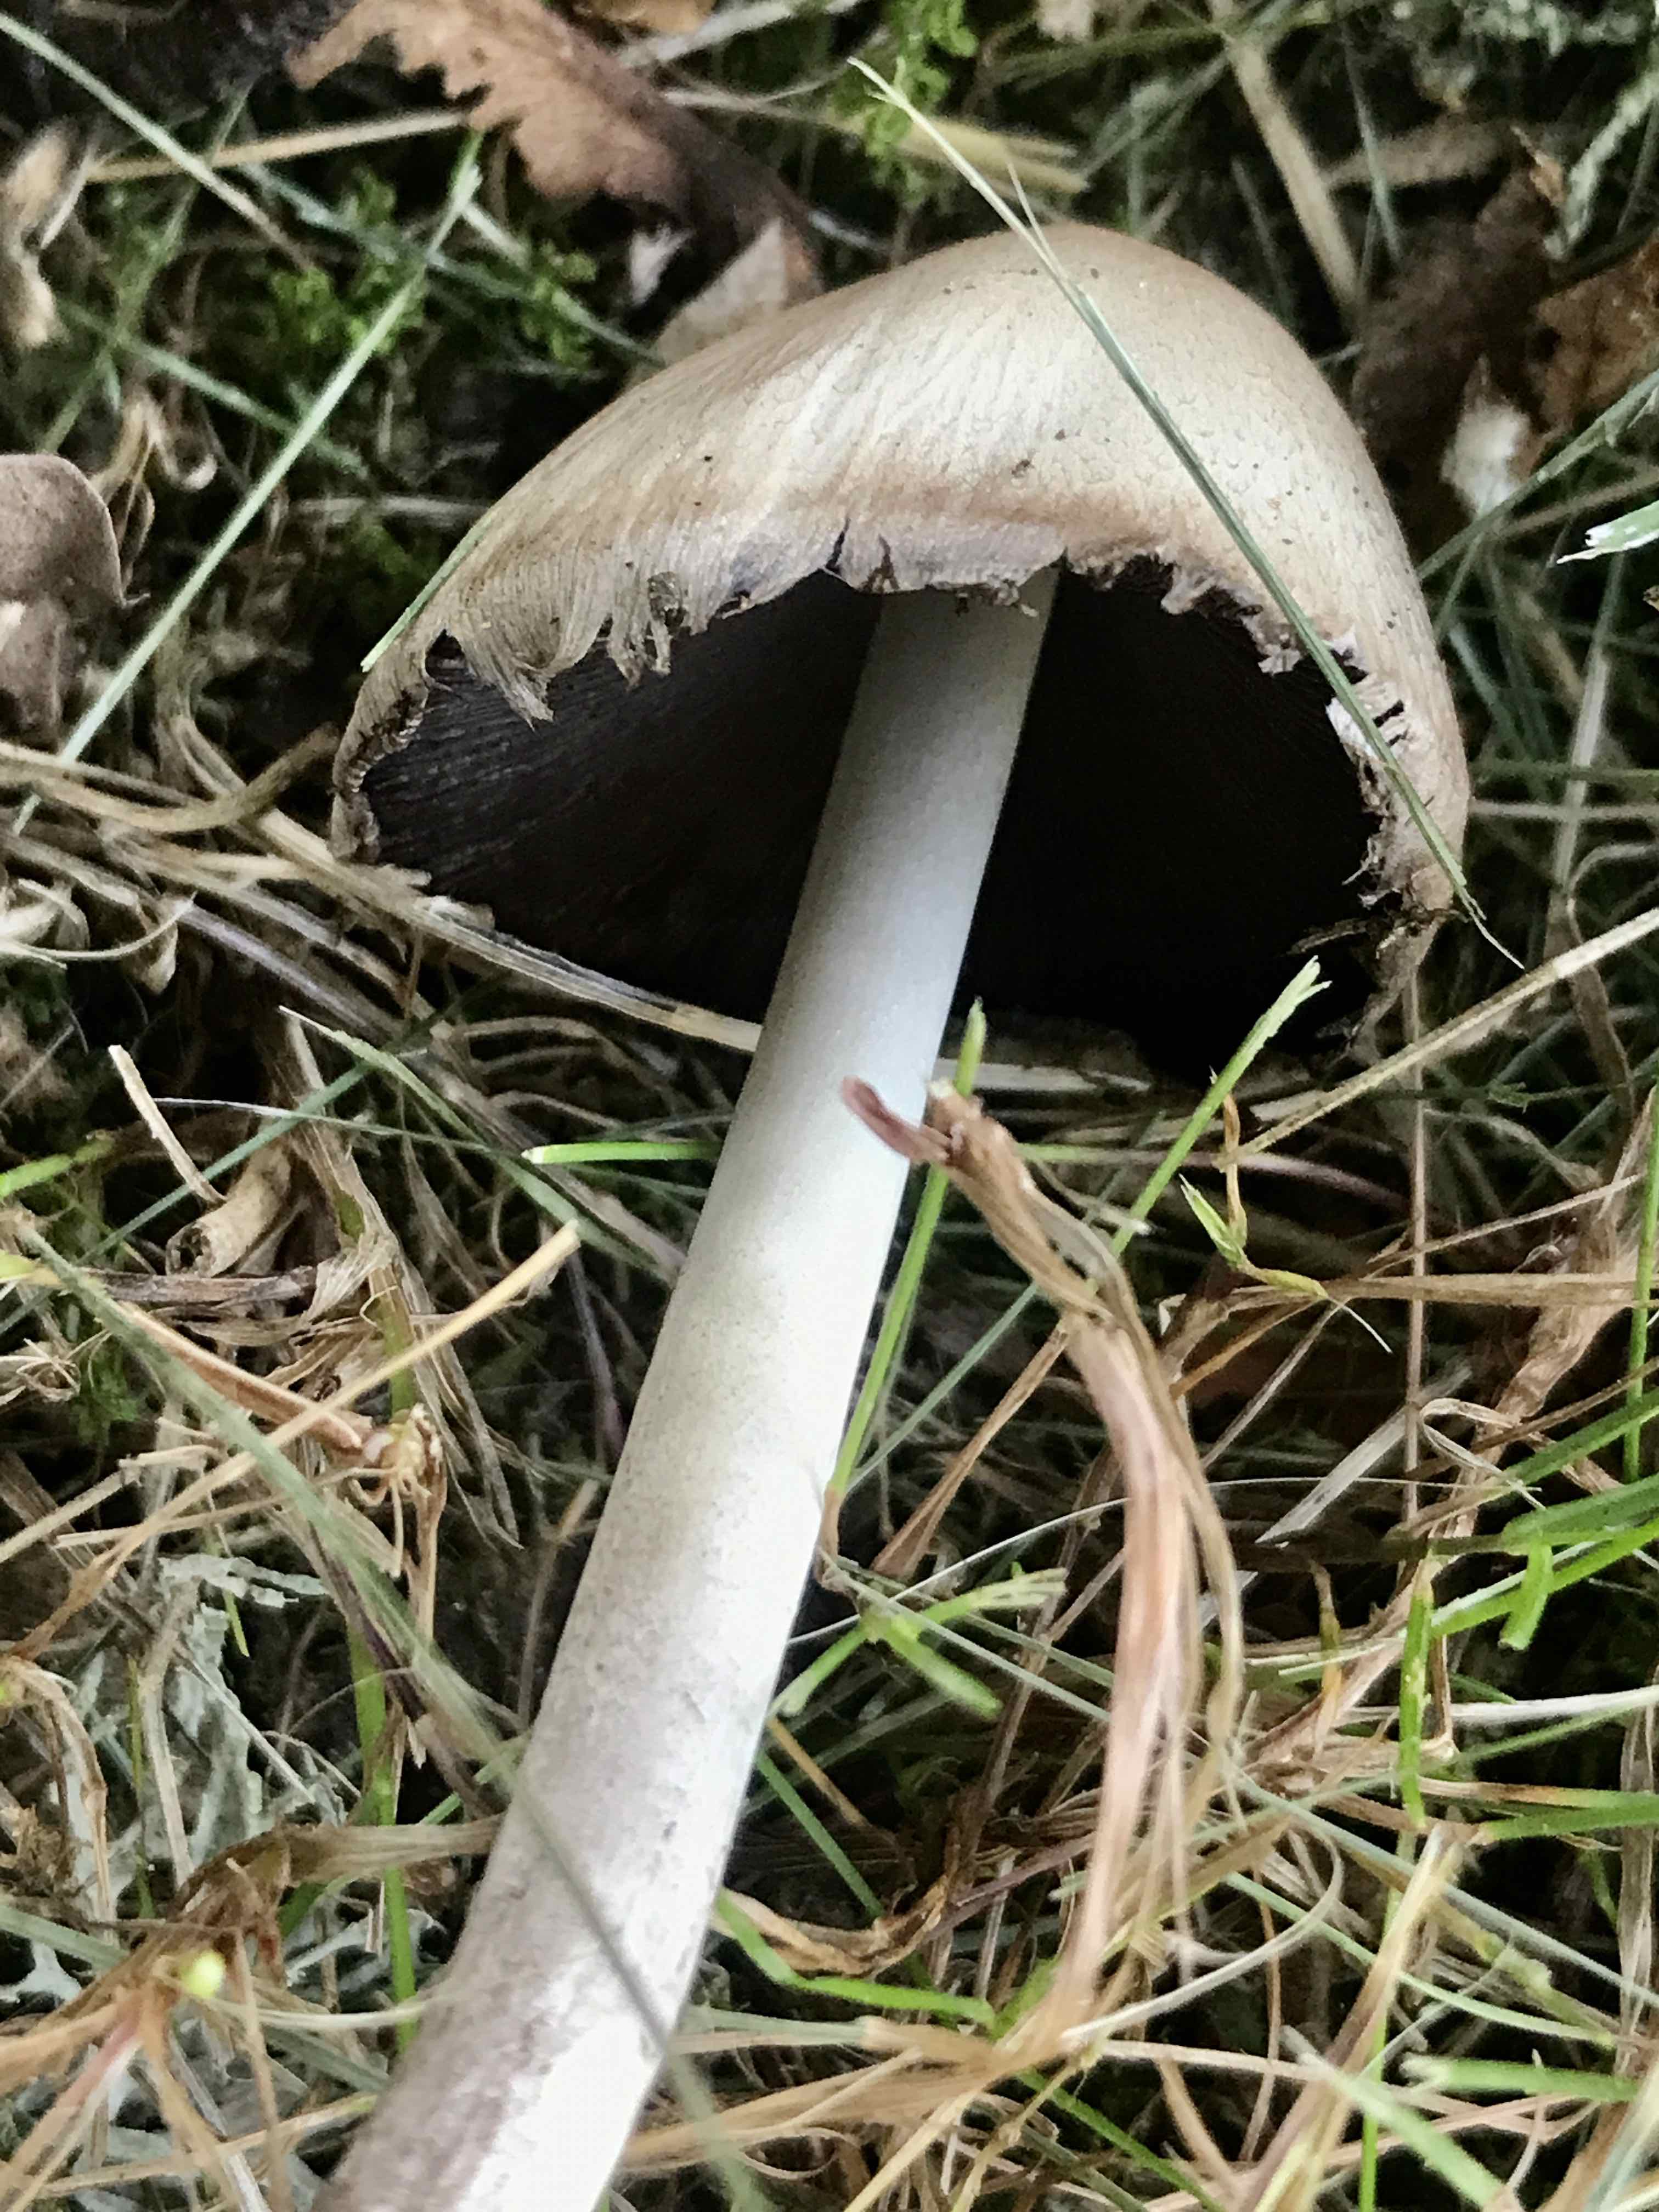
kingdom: Fungi
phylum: Basidiomycota
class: Agaricomycetes
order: Agaricales
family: Psathyrellaceae
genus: Coprinopsis
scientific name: Coprinopsis atramentaria
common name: almindelig blækhat
